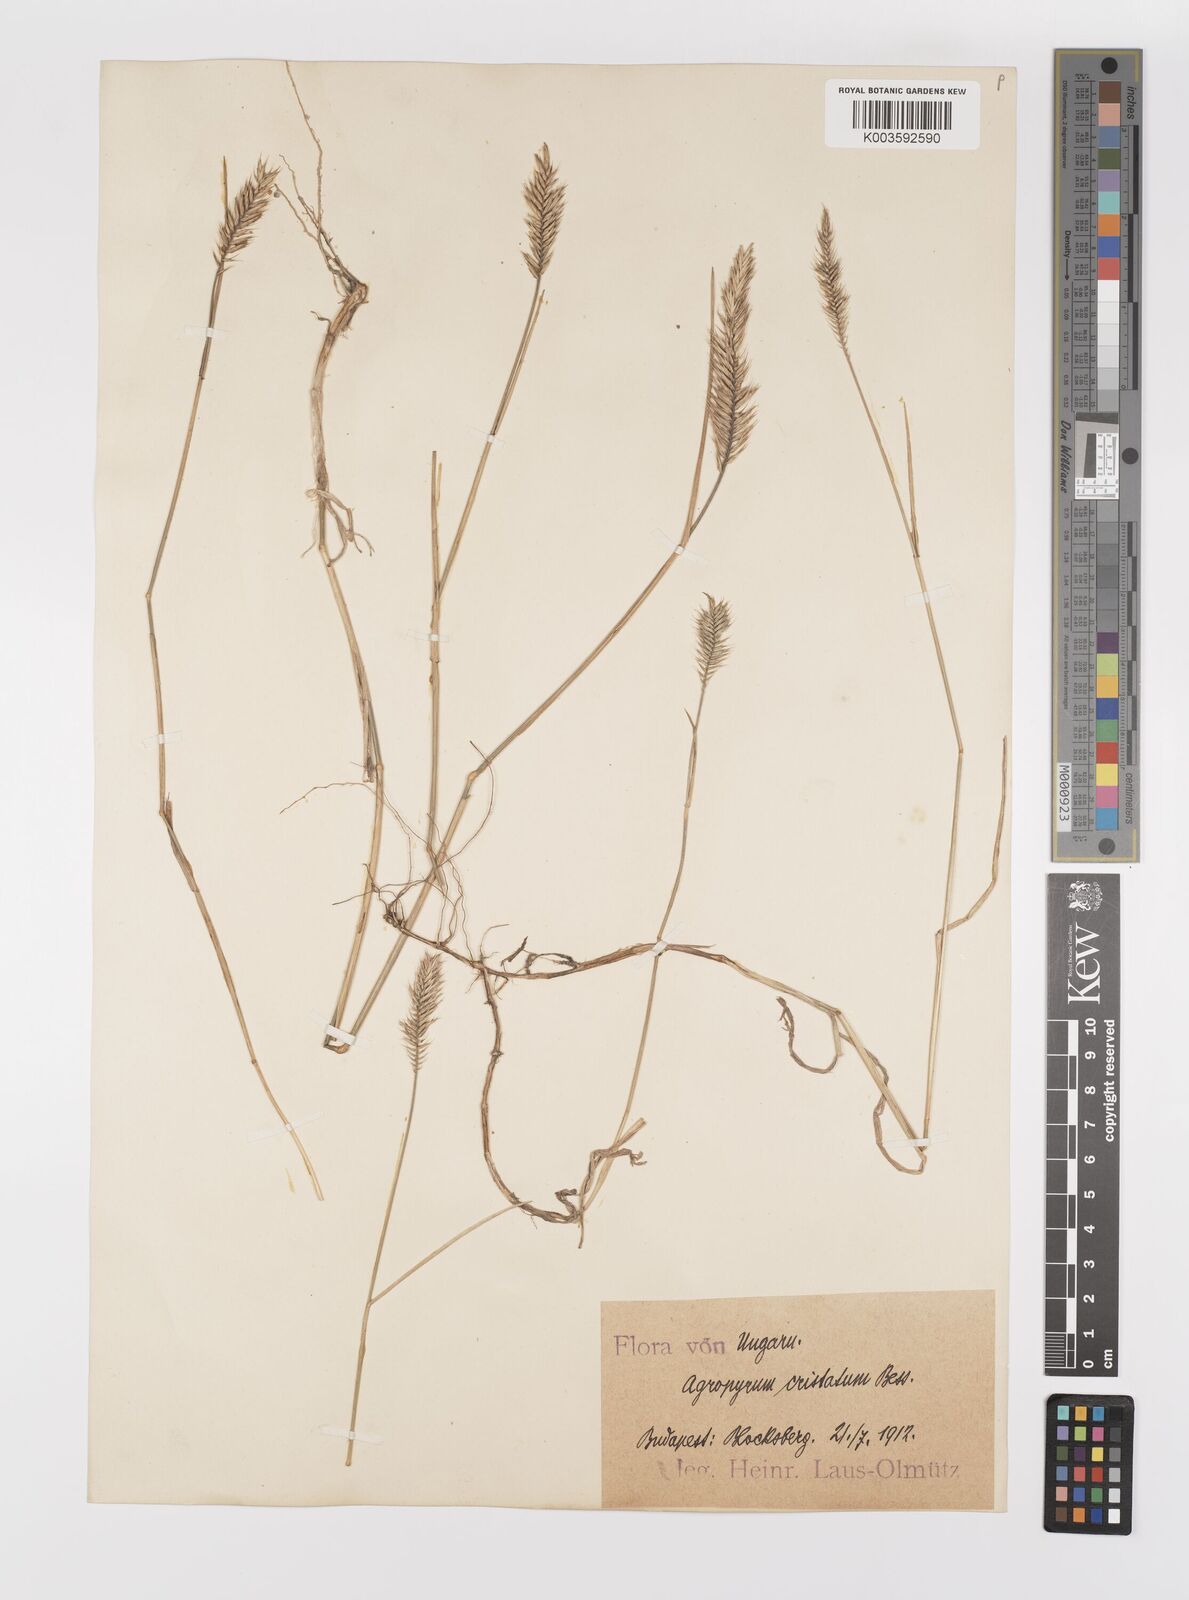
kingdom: Plantae
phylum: Tracheophyta
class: Liliopsida
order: Poales
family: Poaceae
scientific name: Poaceae
